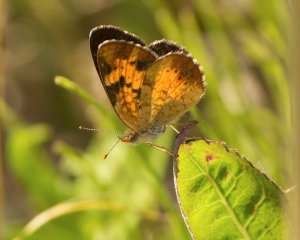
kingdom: Animalia
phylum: Arthropoda
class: Insecta
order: Lepidoptera
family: Nymphalidae
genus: Phyciodes
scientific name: Phyciodes tharos
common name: Northern Crescent
